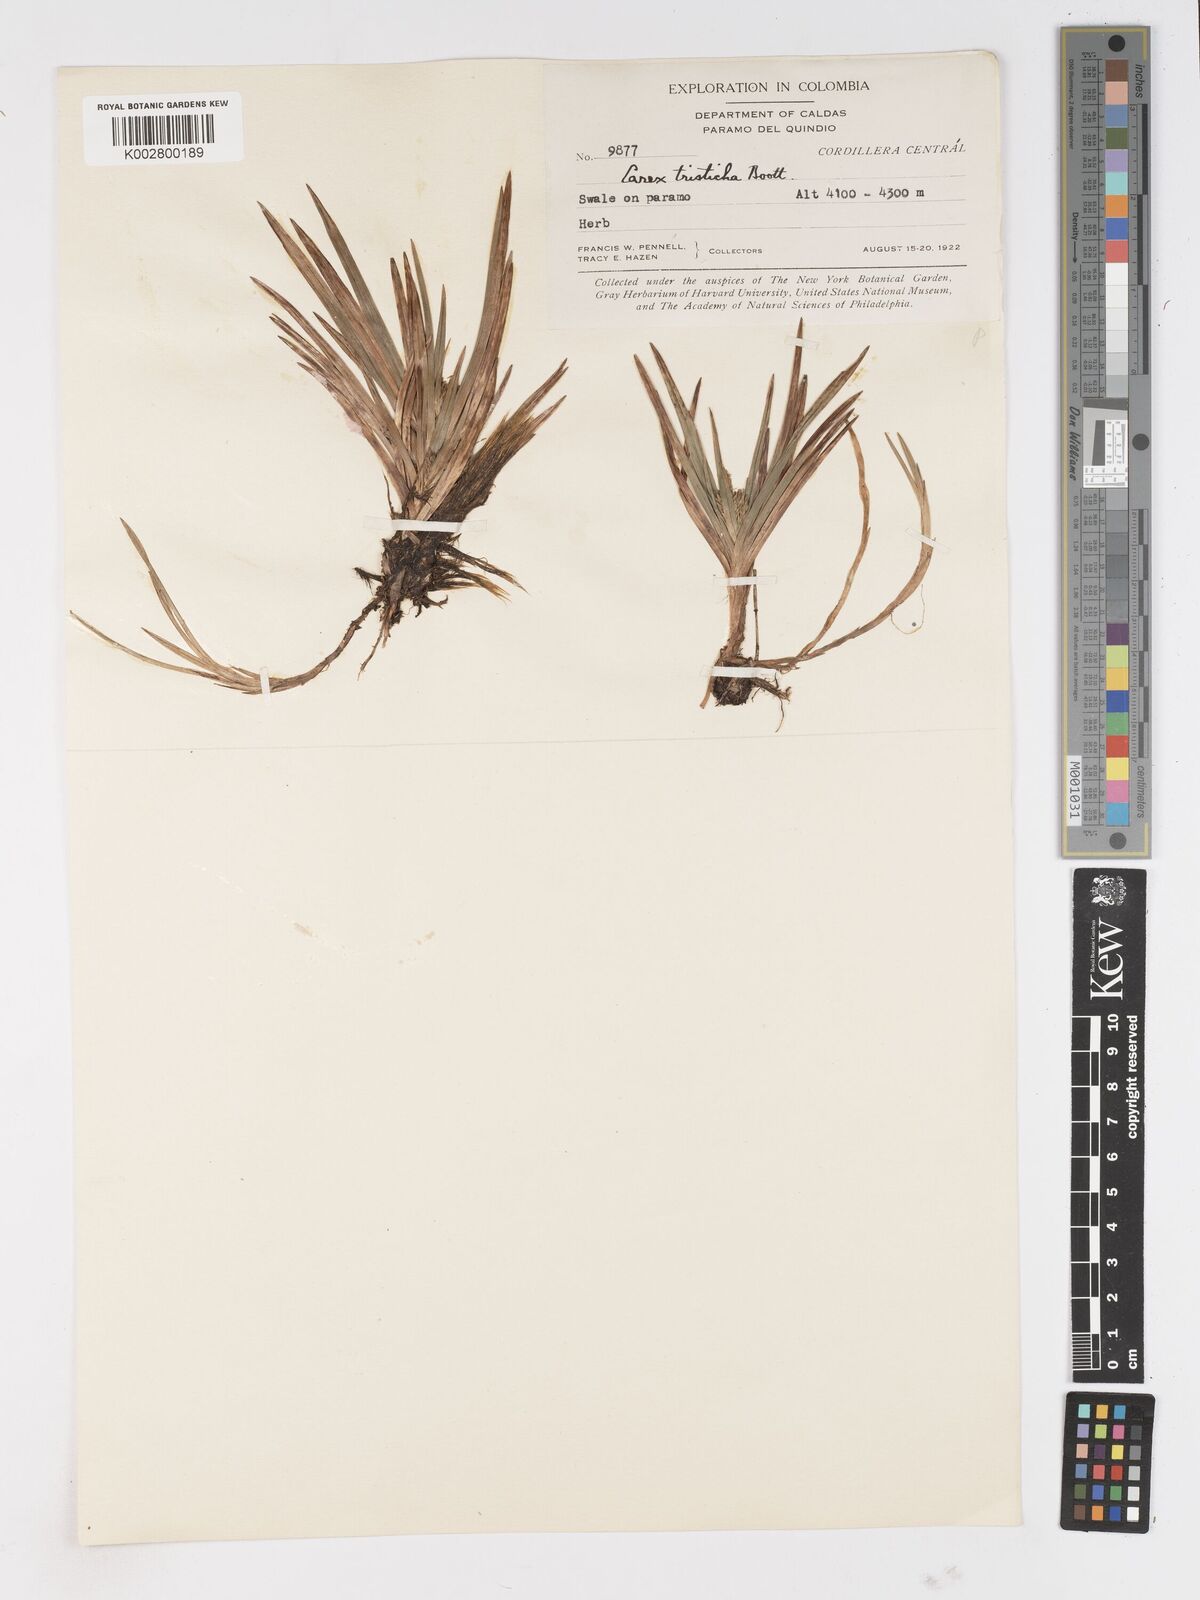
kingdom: Plantae
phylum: Tracheophyta
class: Liliopsida
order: Poales
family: Cyperaceae
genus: Carex
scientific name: Carex tamana
